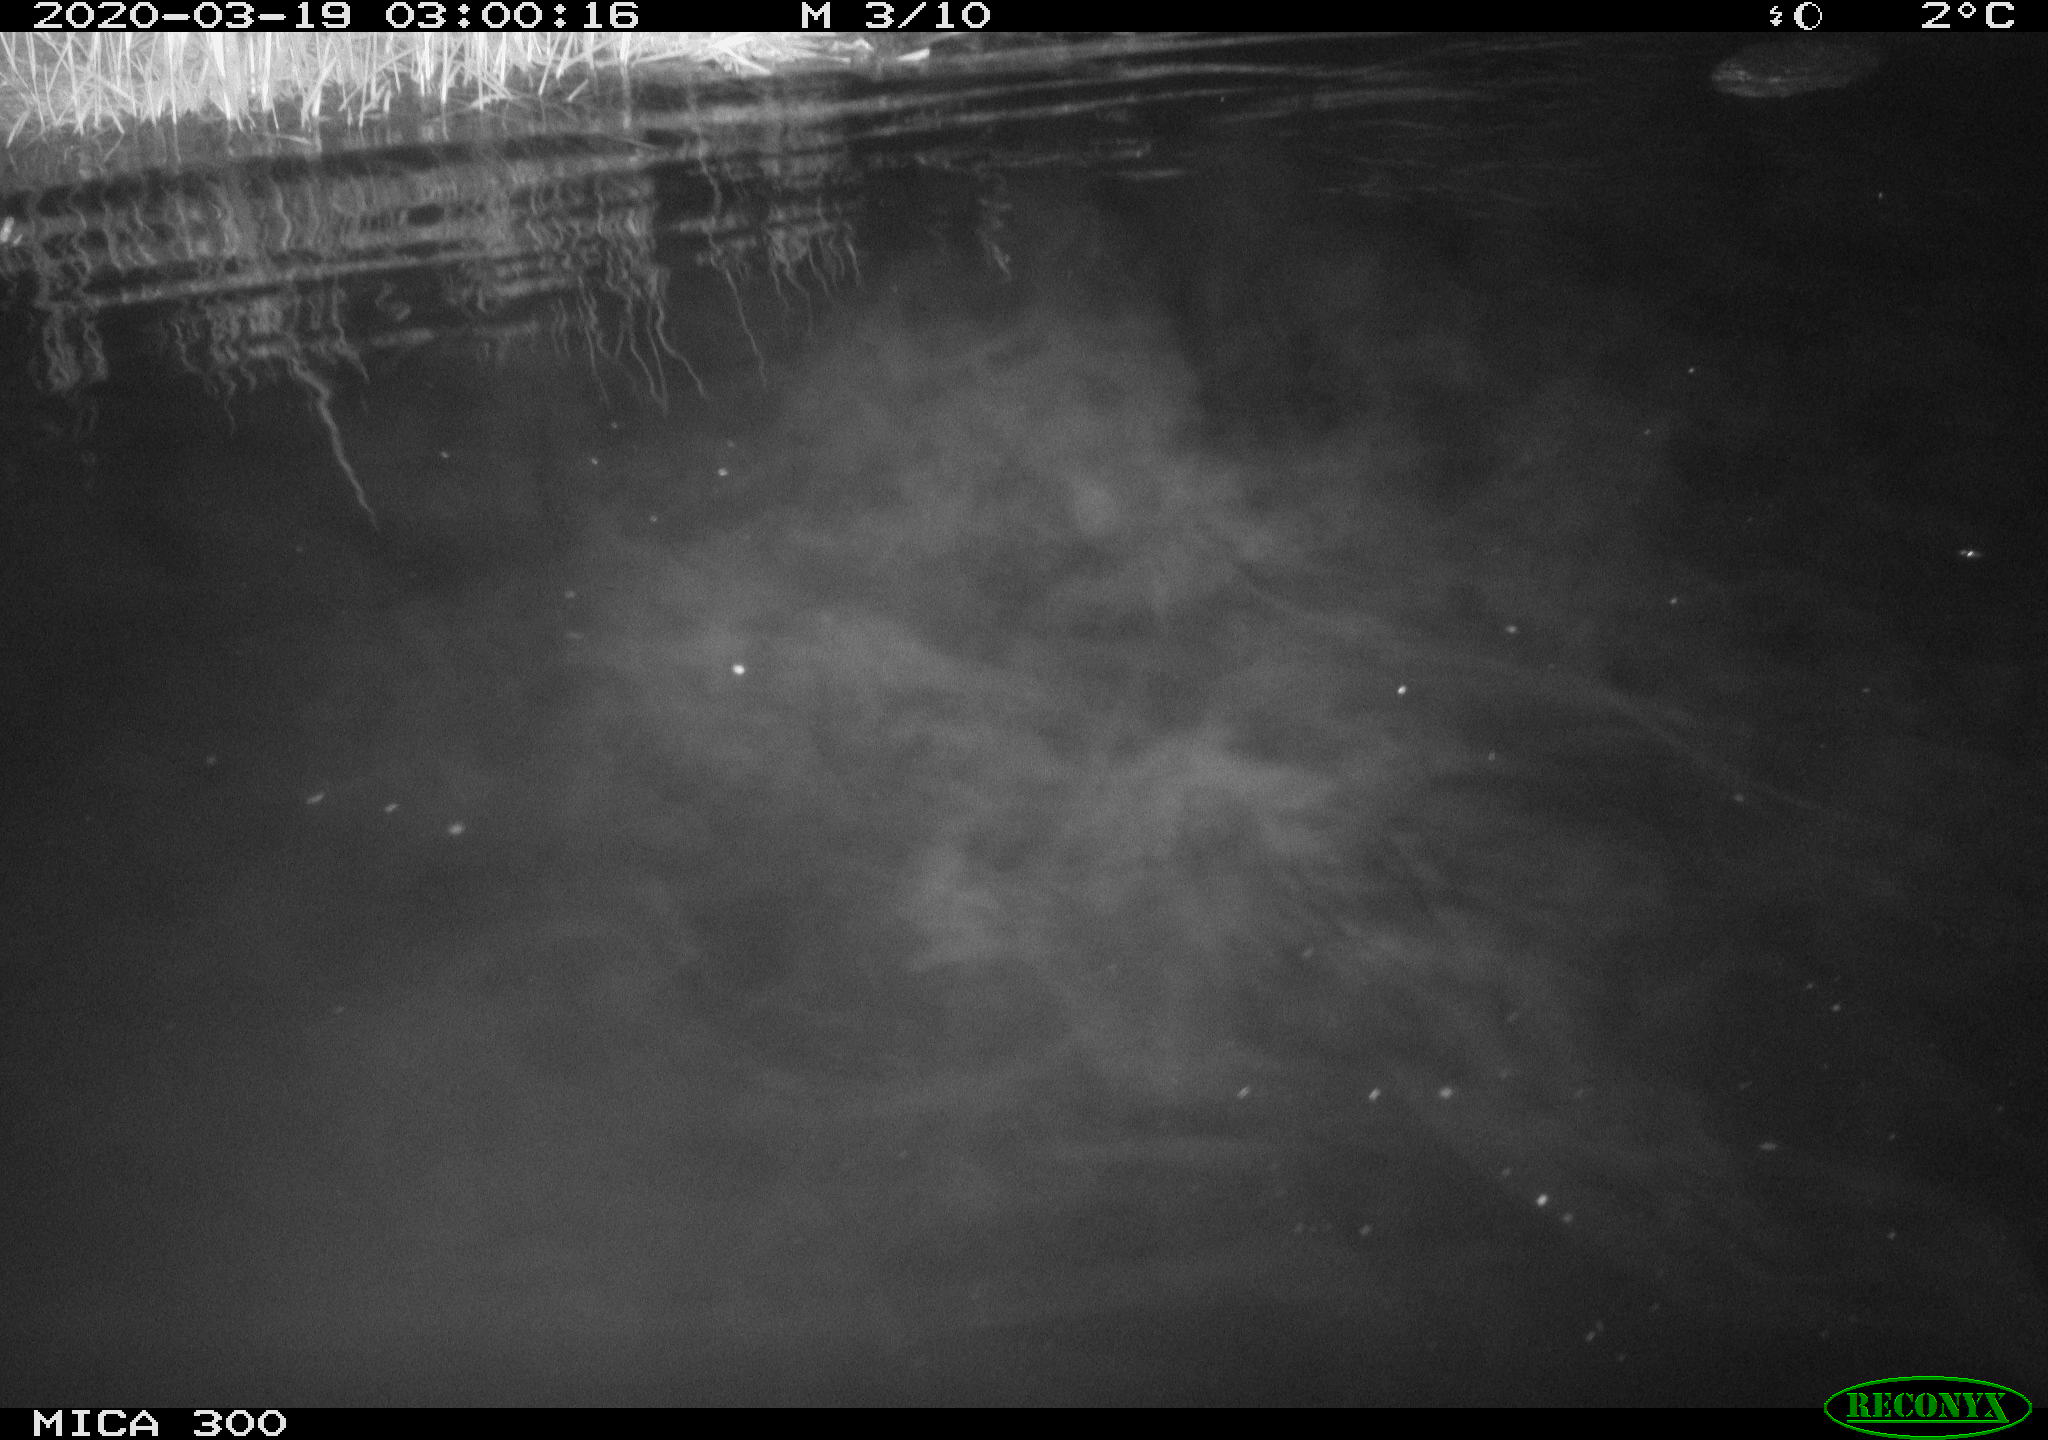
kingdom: Animalia
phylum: Chordata
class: Mammalia
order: Rodentia
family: Castoridae
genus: Castor
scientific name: Castor fiber
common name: Eurasian beaver
